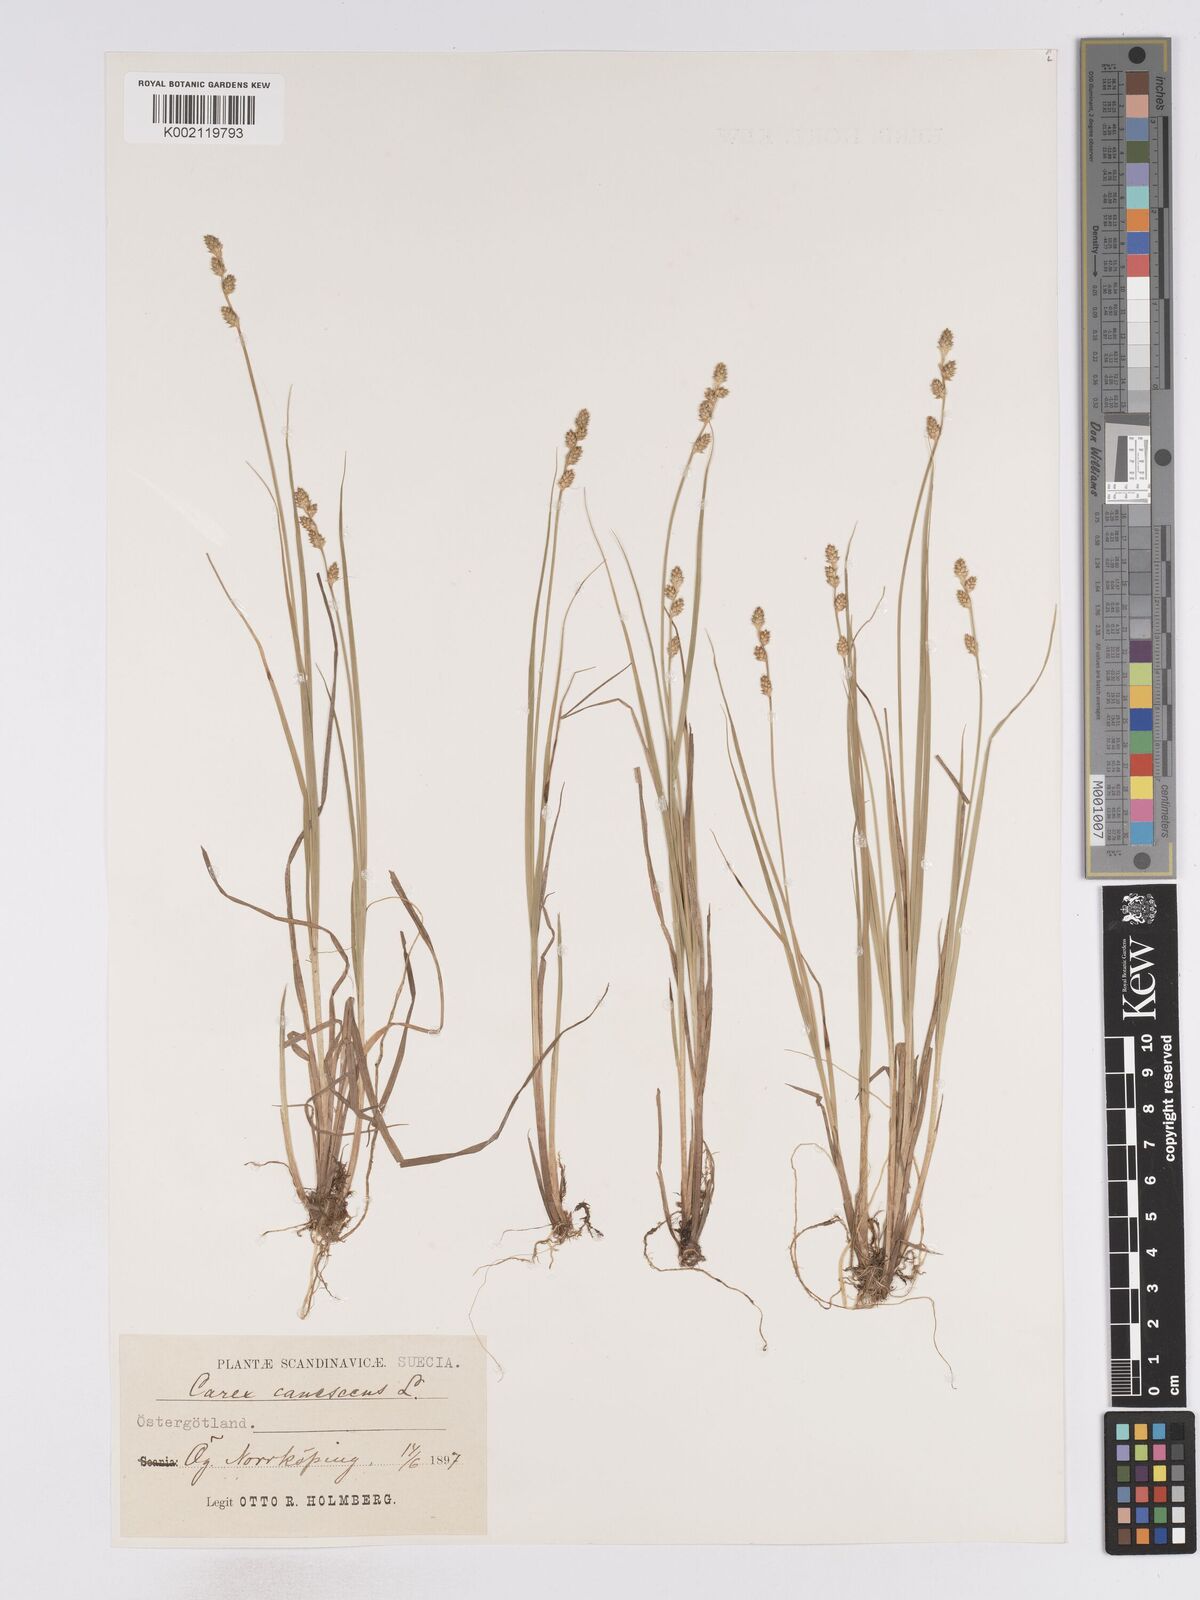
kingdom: Plantae
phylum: Tracheophyta
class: Liliopsida
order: Poales
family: Cyperaceae
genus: Carex
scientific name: Carex curta
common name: White sedge
